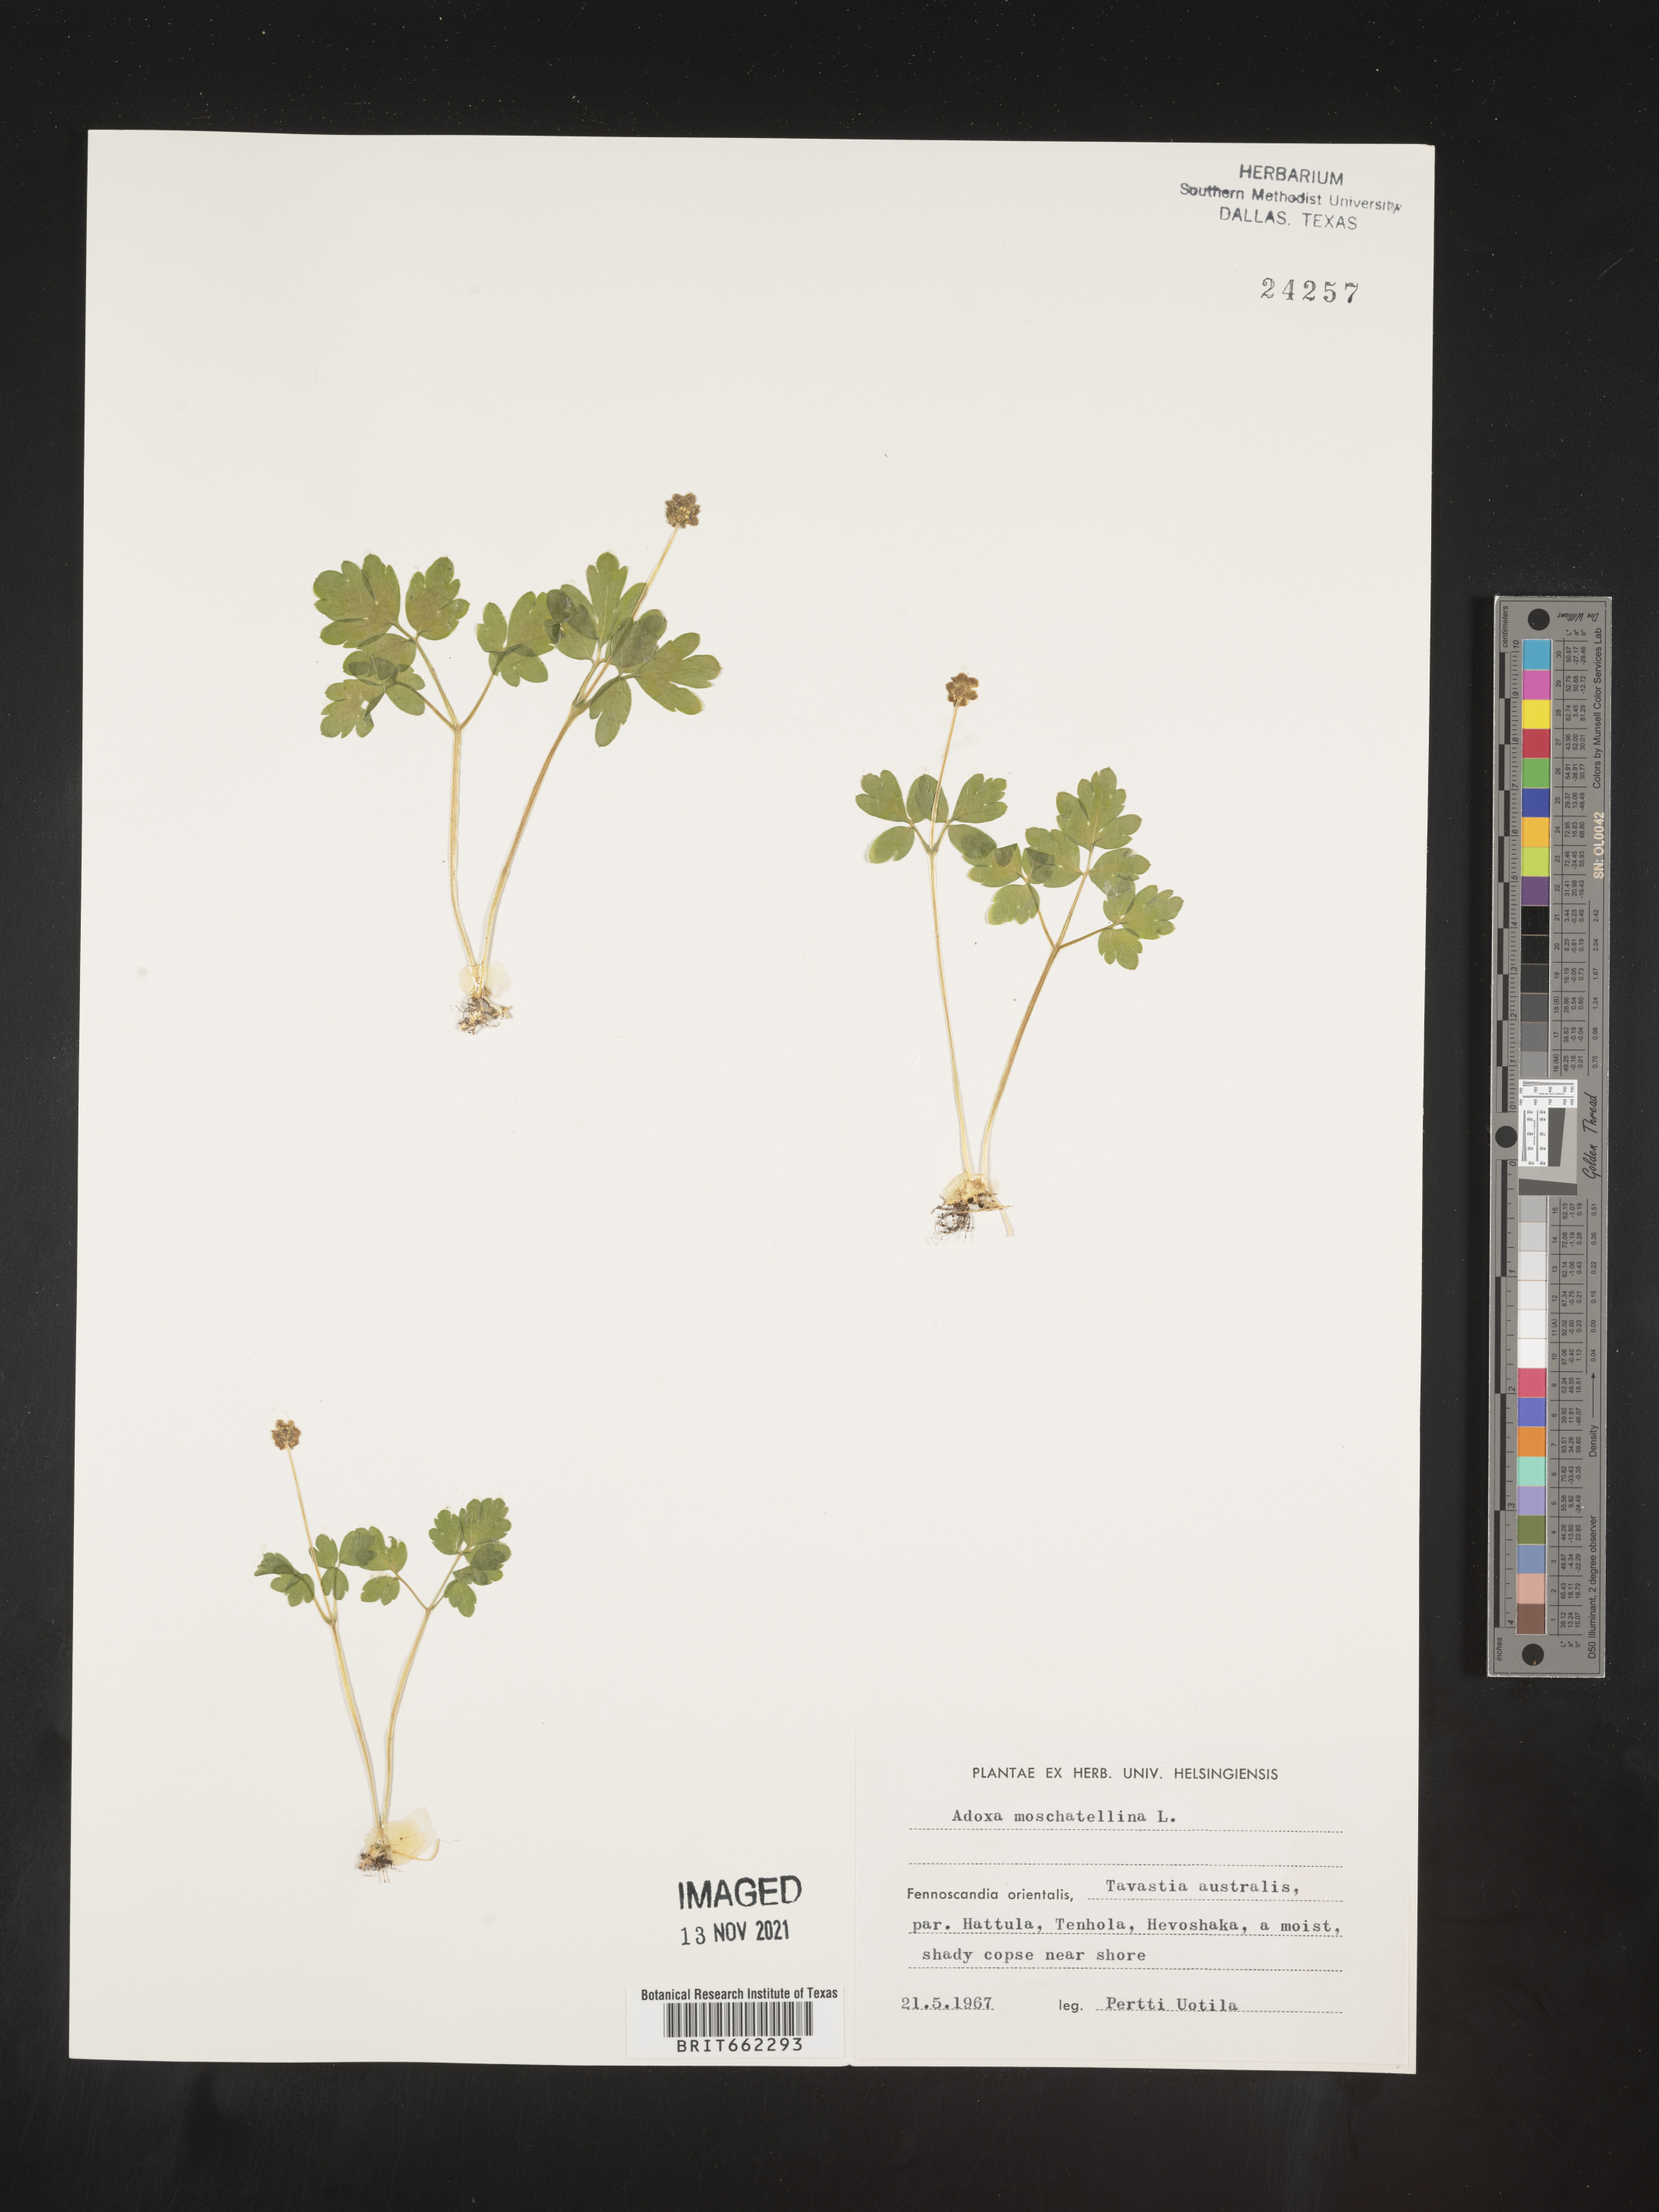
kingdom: Plantae
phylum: Tracheophyta
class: Magnoliopsida
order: Dipsacales
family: Viburnaceae
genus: Adoxa
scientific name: Adoxa
